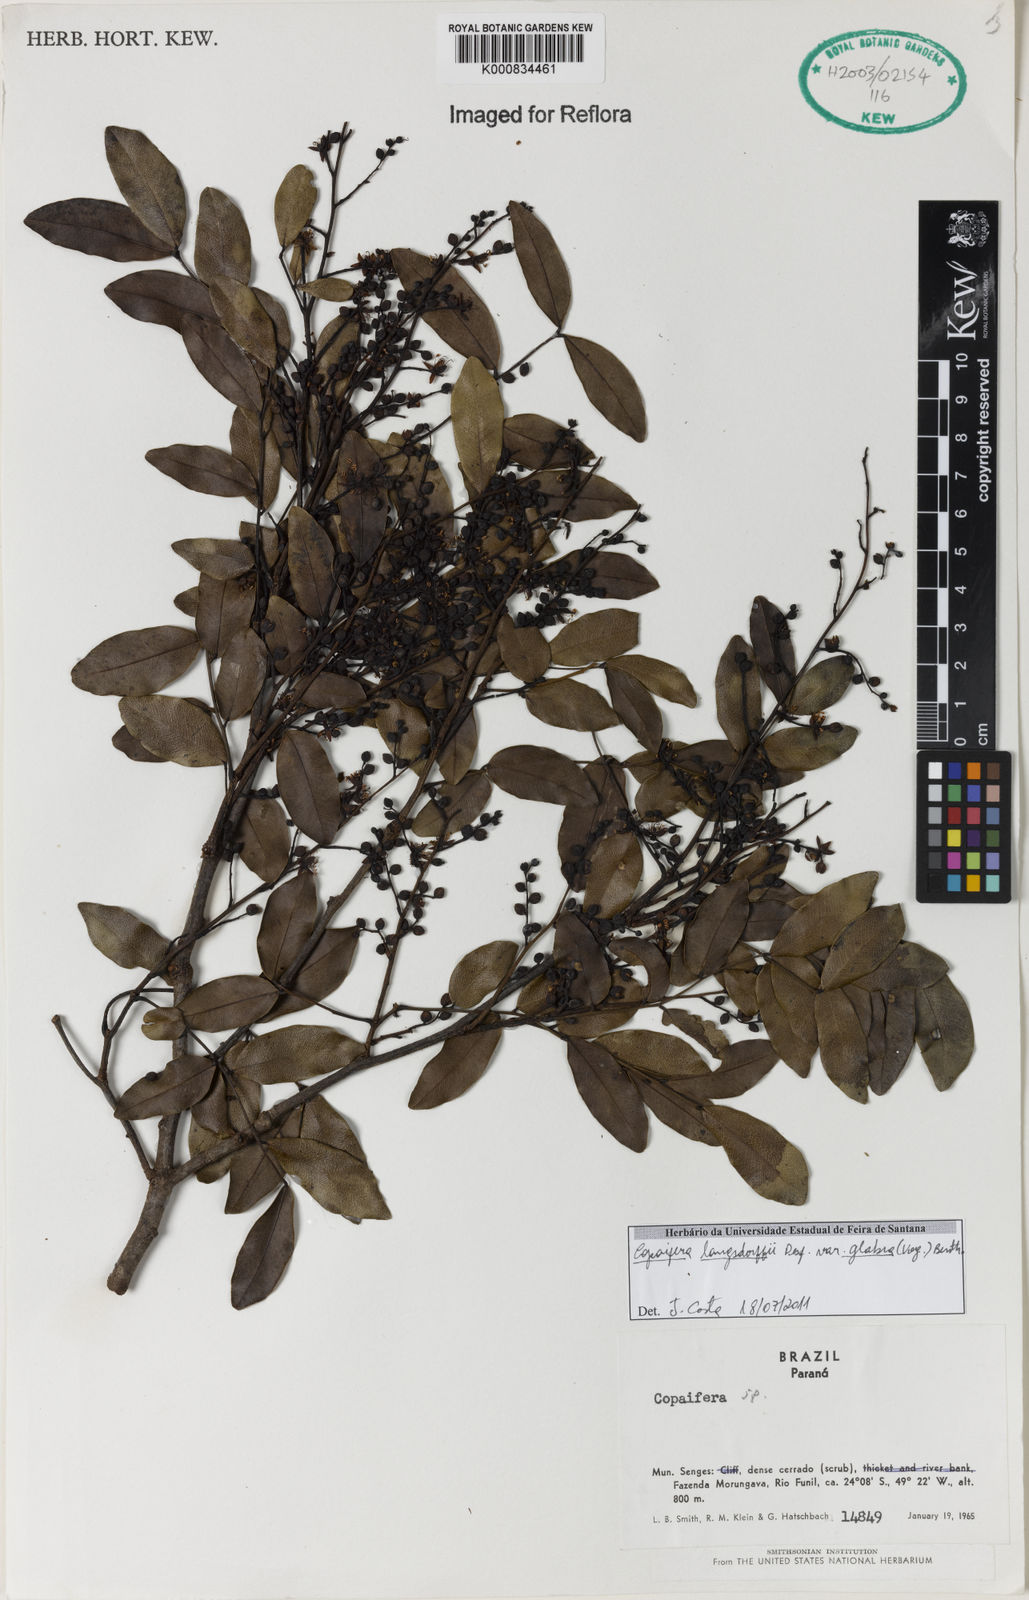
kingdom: Plantae
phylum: Tracheophyta
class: Magnoliopsida
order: Fabales
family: Fabaceae
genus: Copaifera
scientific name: Copaifera langsdorffii
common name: Brazilian diesel tree
